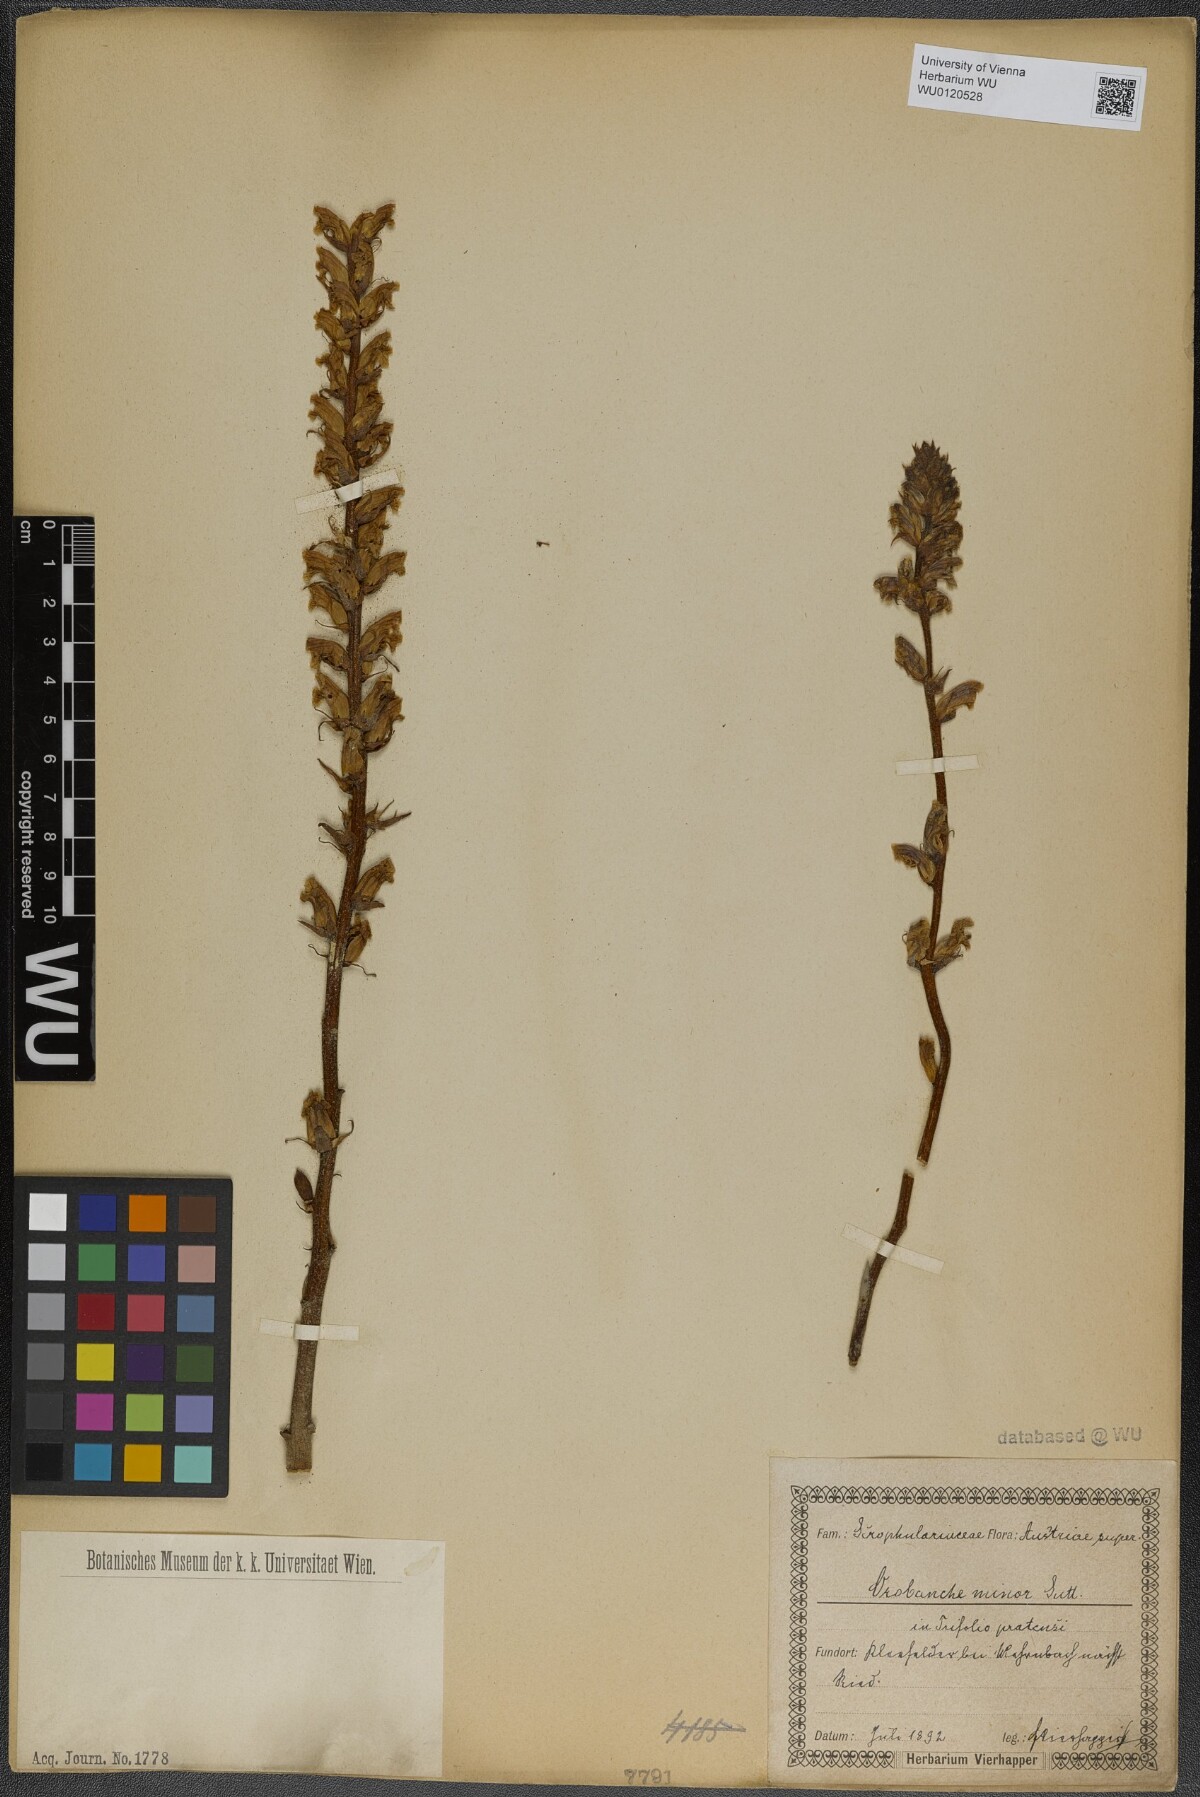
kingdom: Plantae
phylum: Tracheophyta
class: Magnoliopsida
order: Lamiales
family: Orobanchaceae
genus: Orobanche
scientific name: Orobanche minor
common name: Common broomrape
